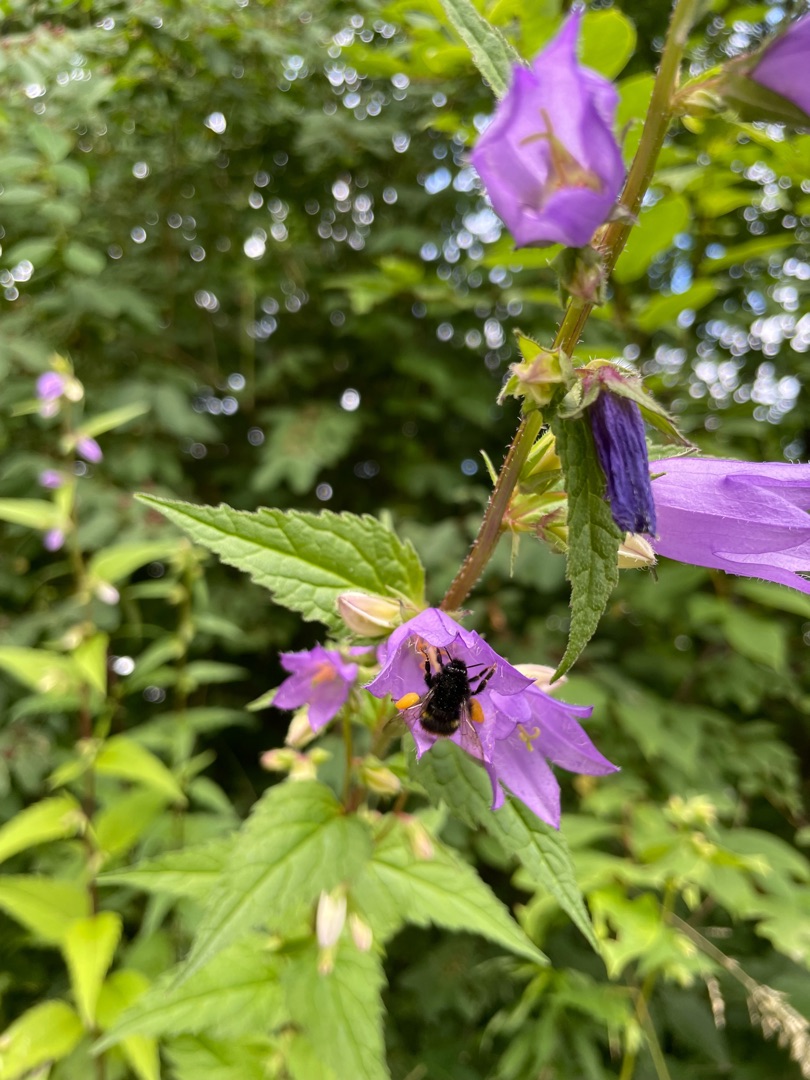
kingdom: Plantae
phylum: Tracheophyta
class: Magnoliopsida
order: Asterales
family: Campanulaceae
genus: Campanula
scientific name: Campanula trachelium
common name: Nælde-klokke
